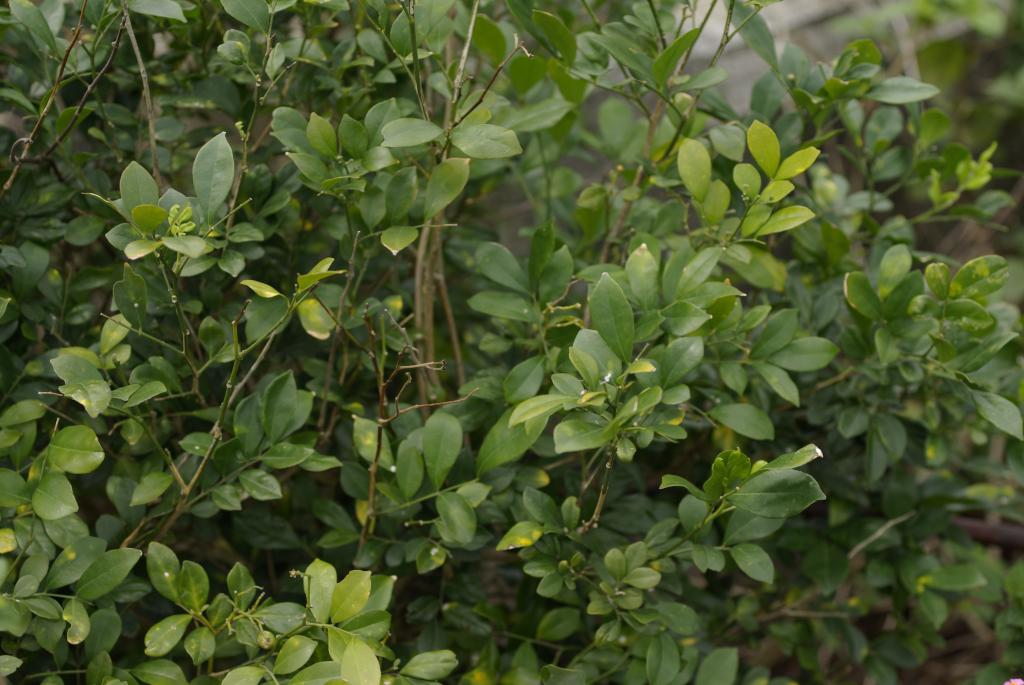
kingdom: Plantae
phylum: Tracheophyta
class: Magnoliopsida
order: Sapindales
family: Rutaceae
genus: Murraya
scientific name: Murraya paniculata
